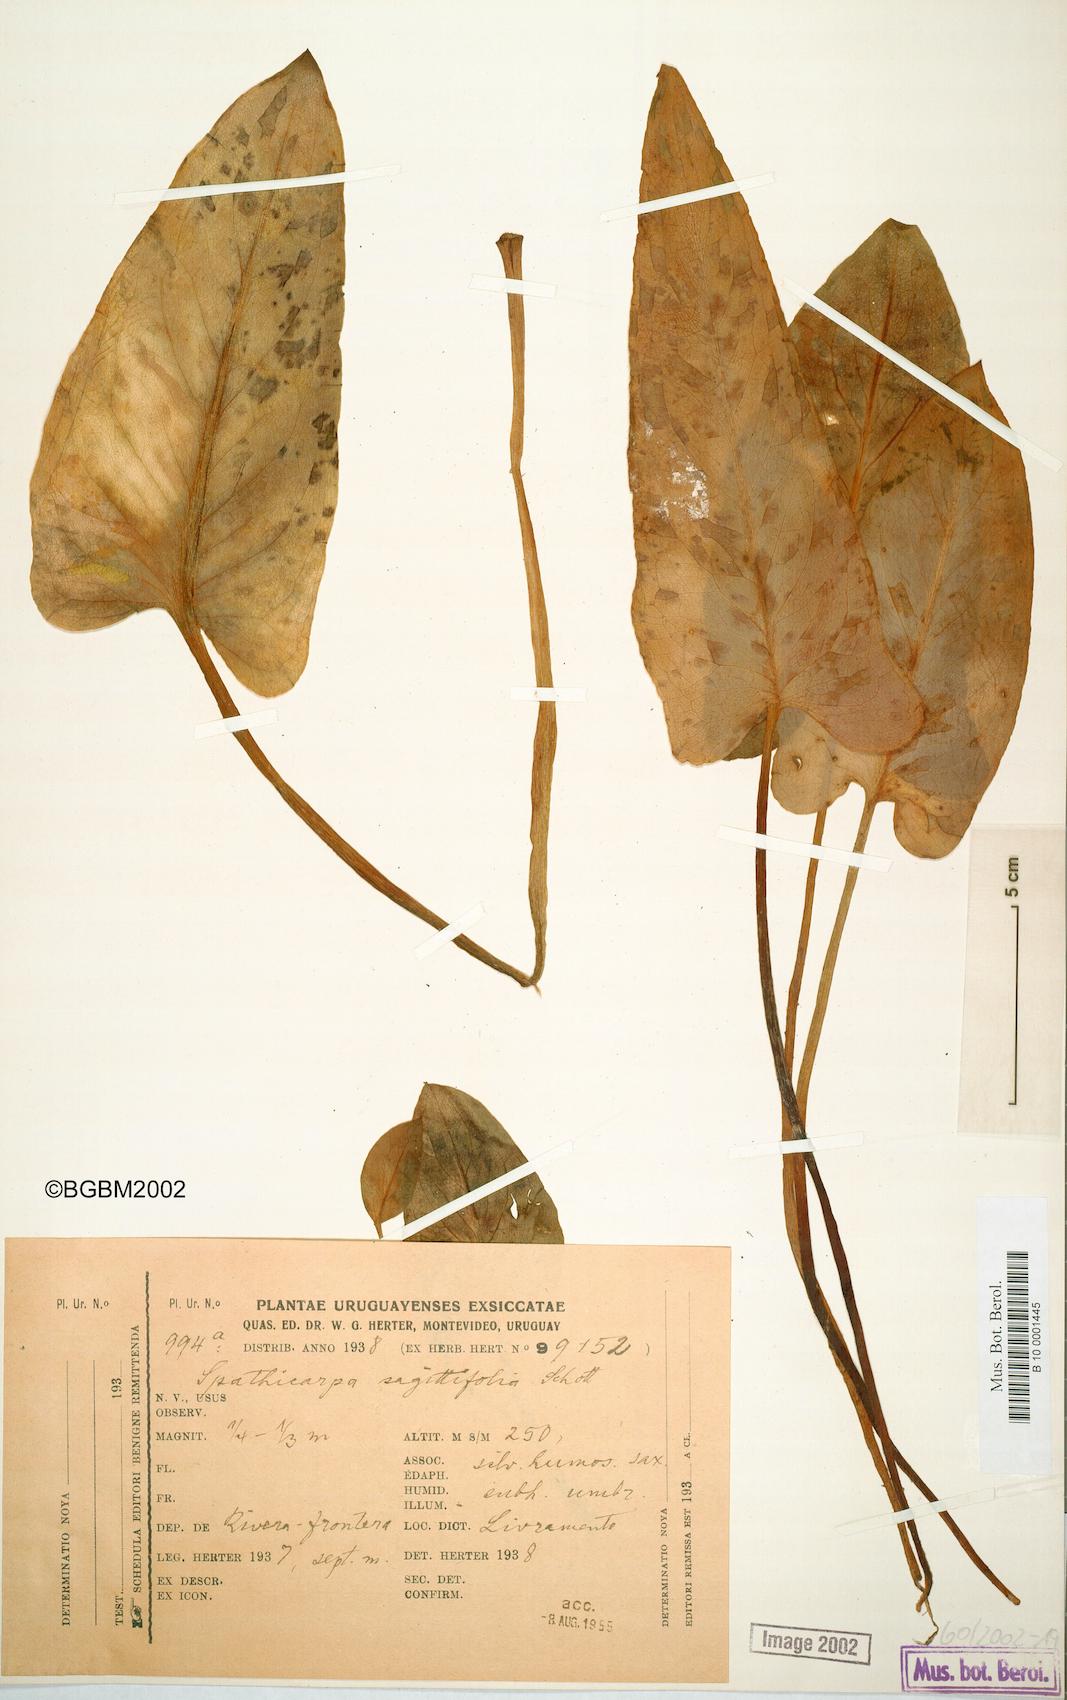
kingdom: Plantae
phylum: Tracheophyta
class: Liliopsida
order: Alismatales
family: Araceae
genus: Spathicarpa
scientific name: Spathicarpa hastifolia
